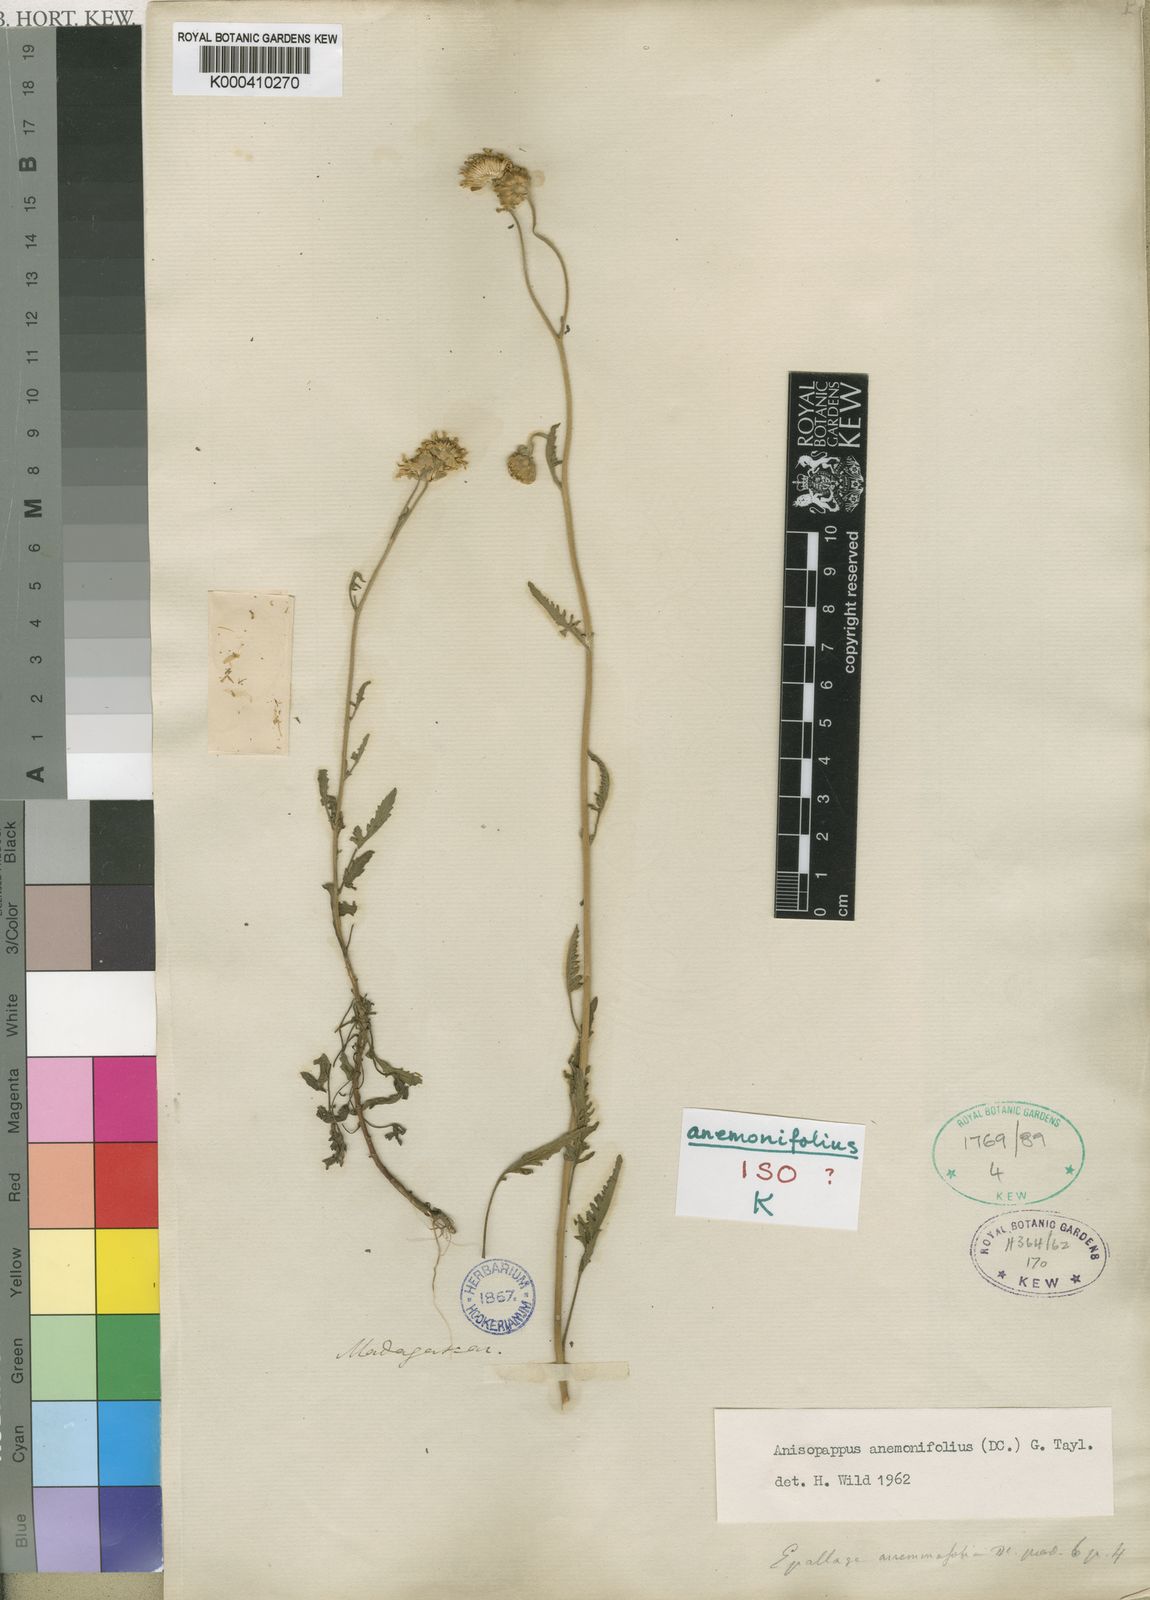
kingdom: Plantae
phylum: Tracheophyta
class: Magnoliopsida
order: Asterales
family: Asteraceae
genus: Anisopappus
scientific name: Anisopappus anemonifolius
